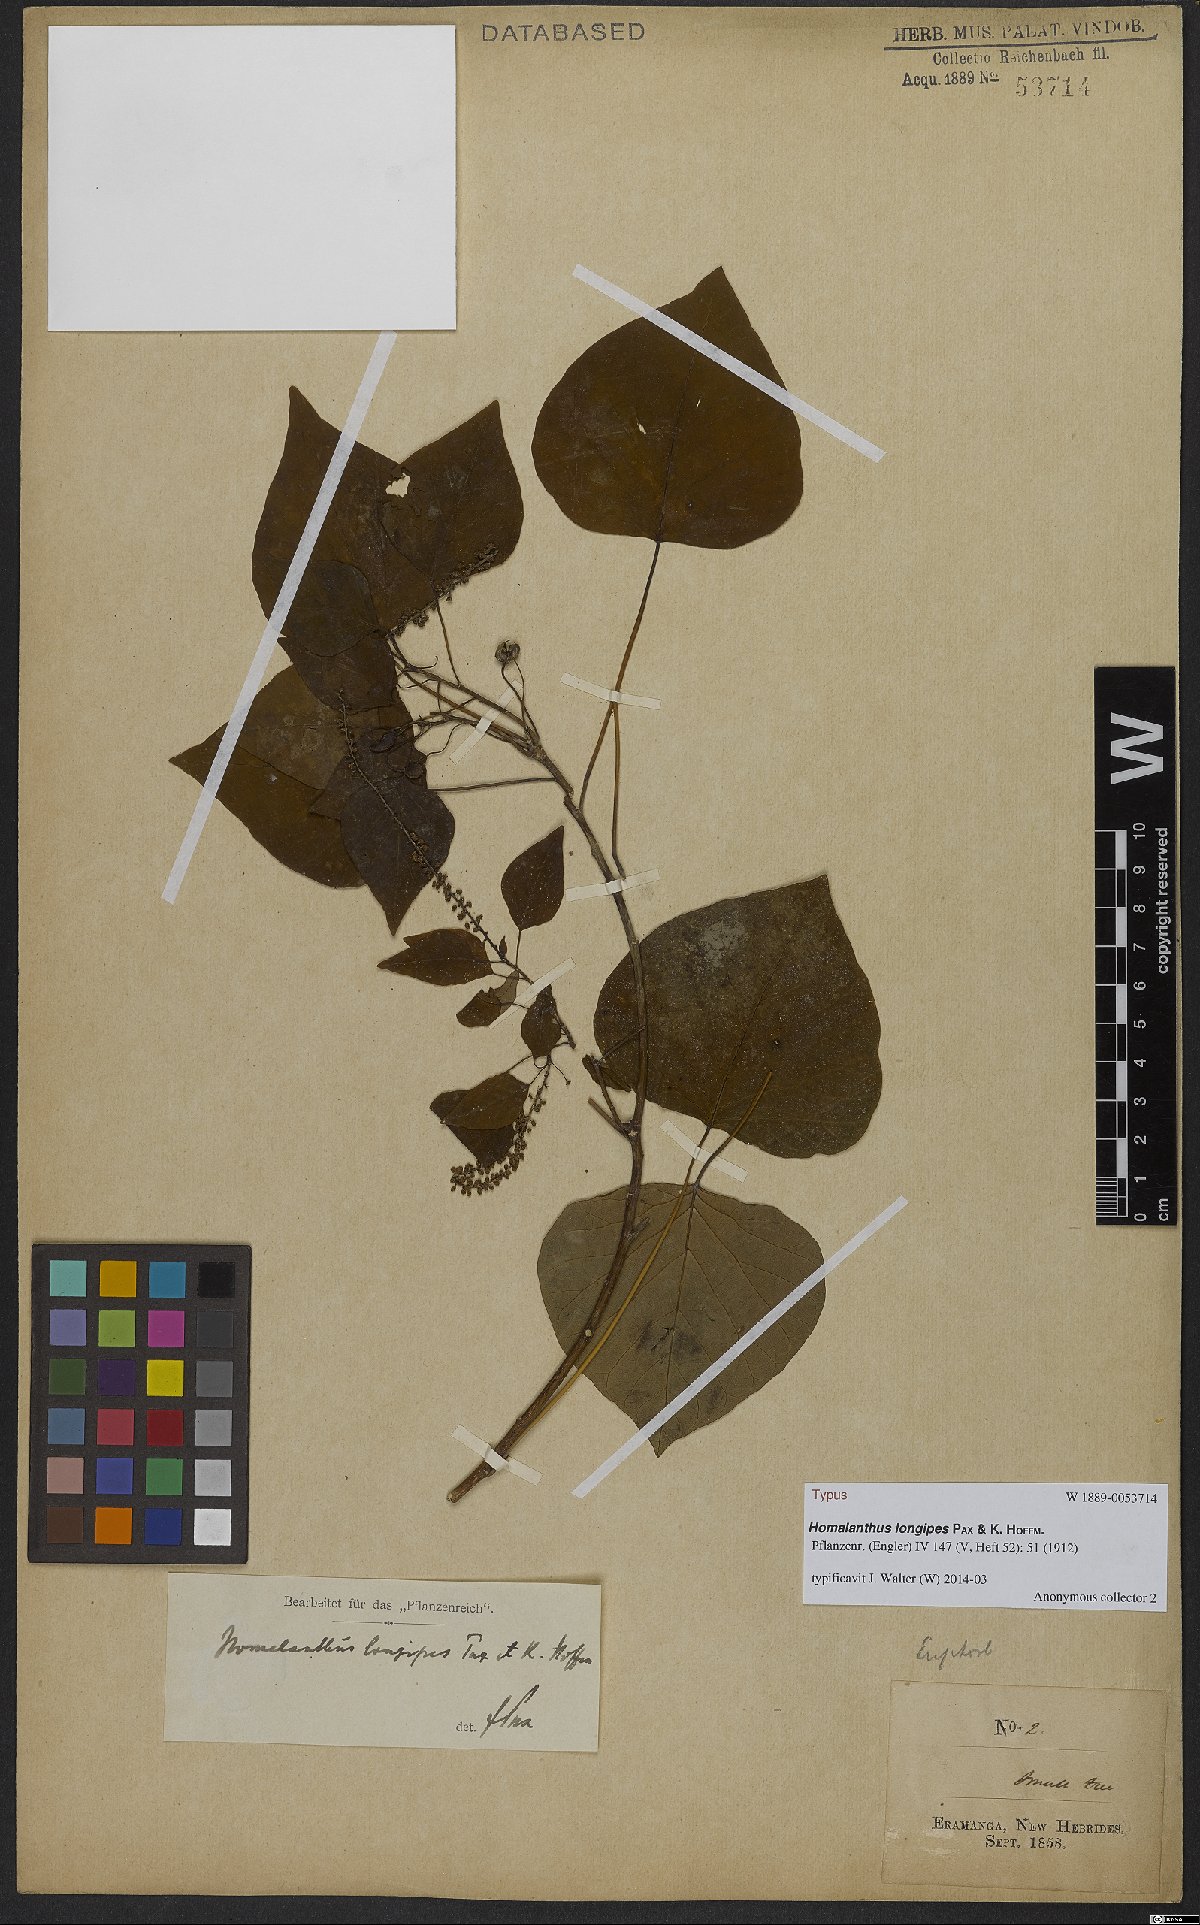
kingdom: Plantae
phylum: Tracheophyta
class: Magnoliopsida
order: Malpighiales
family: Euphorbiaceae
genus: Homalanthus
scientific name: Homalanthus longipes
